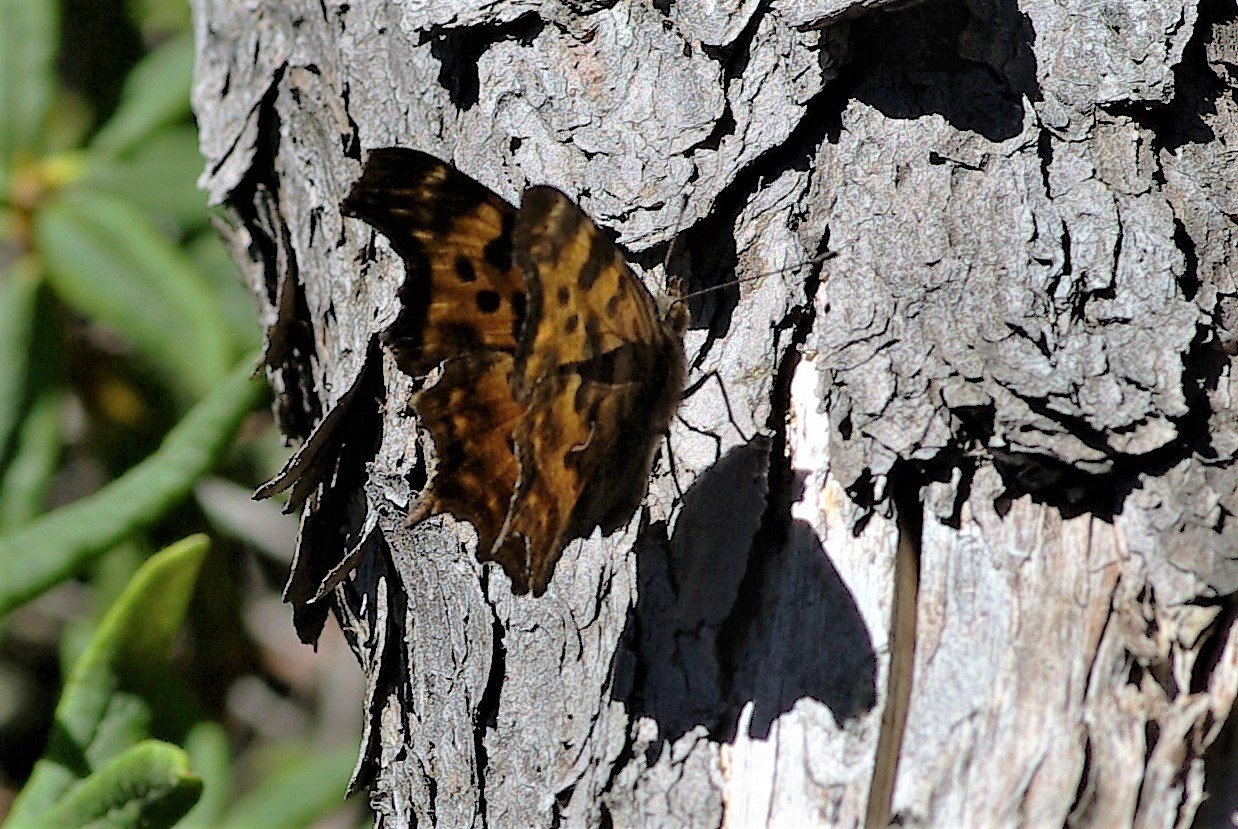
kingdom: Animalia
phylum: Arthropoda
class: Insecta
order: Lepidoptera
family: Nymphalidae
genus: Polygonia
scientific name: Polygonia faunus
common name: Green Comma
